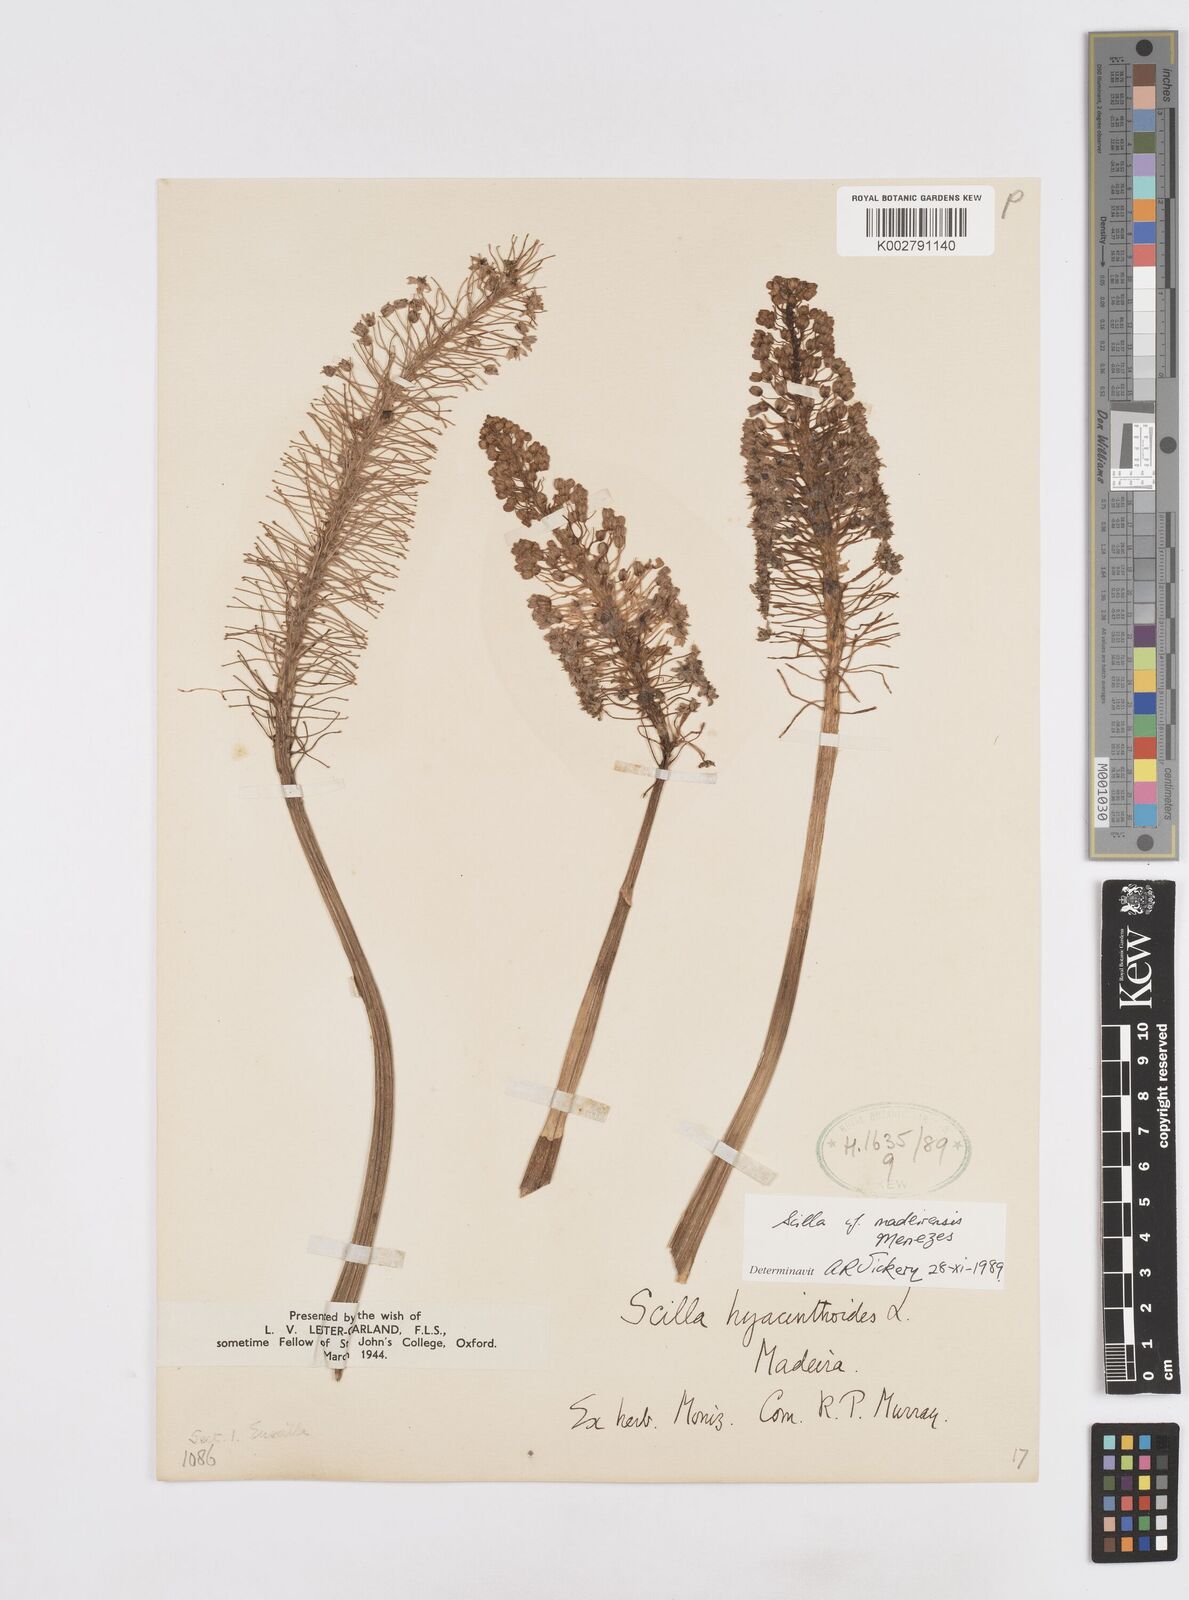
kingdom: Plantae
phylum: Tracheophyta
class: Liliopsida
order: Asparagales
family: Asparagaceae
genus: Scilla
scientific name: Scilla madeirensis
